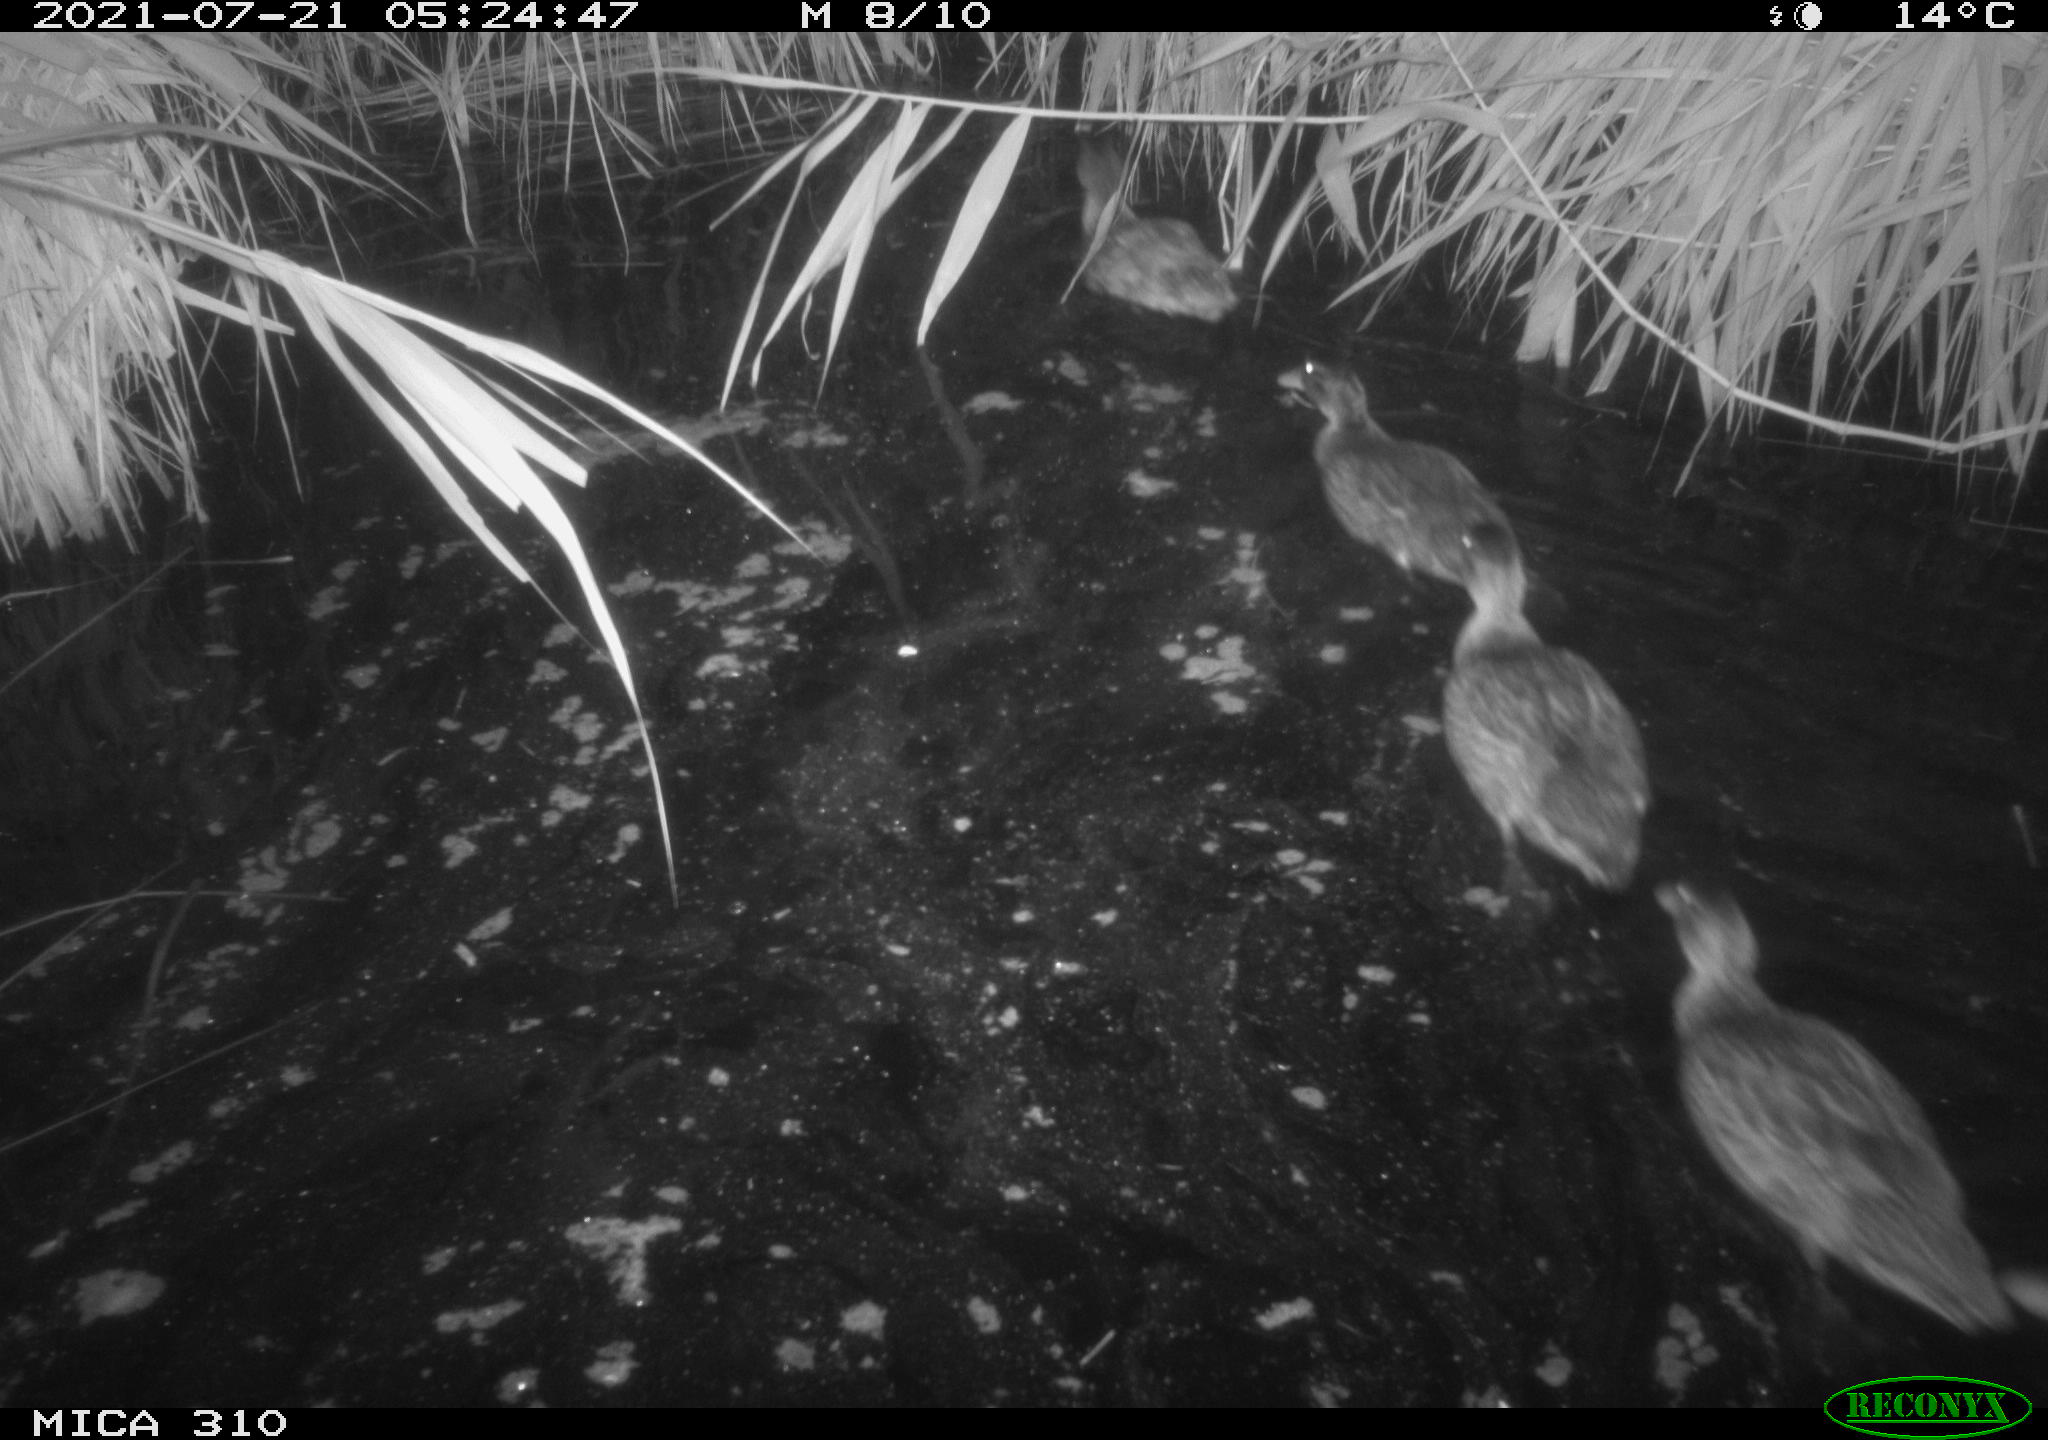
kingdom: Animalia
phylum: Chordata
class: Aves
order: Anseriformes
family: Anatidae
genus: Mareca
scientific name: Mareca strepera
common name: Gadwall
